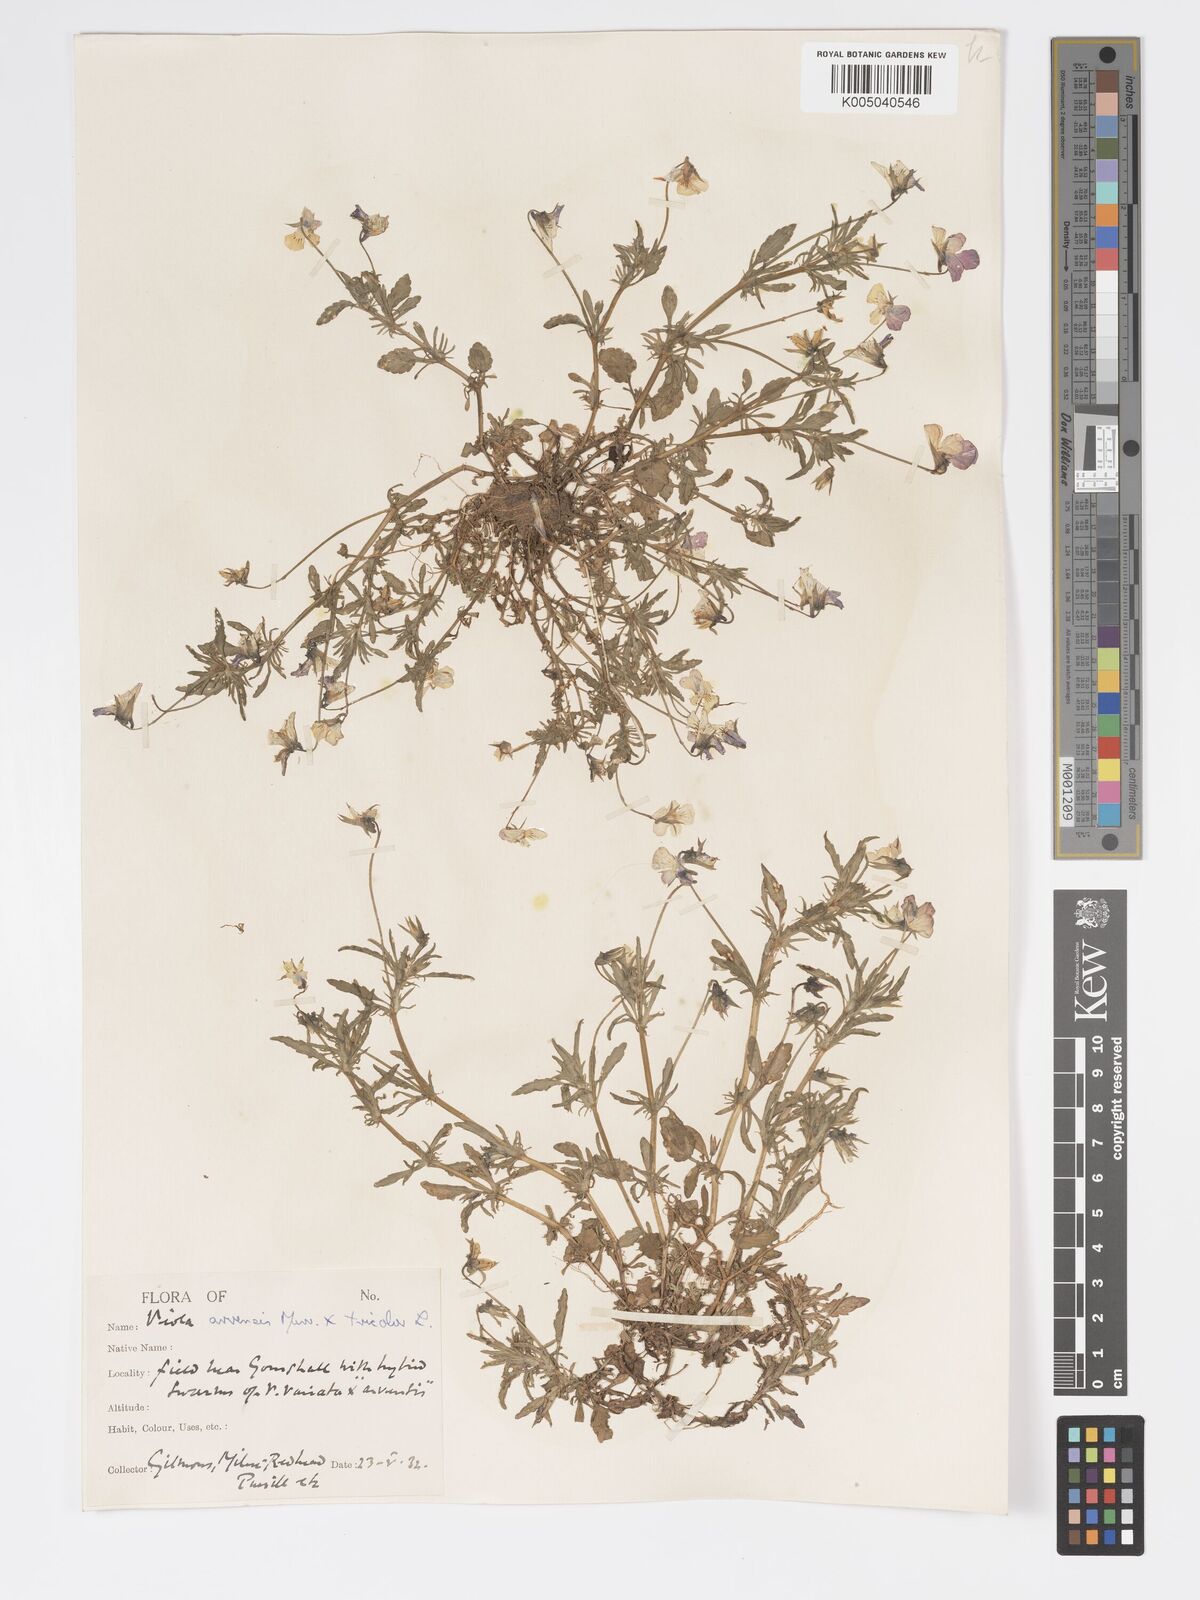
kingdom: Plantae
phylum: Tracheophyta
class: Magnoliopsida
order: Malpighiales
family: Violaceae
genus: Viola
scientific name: Viola
